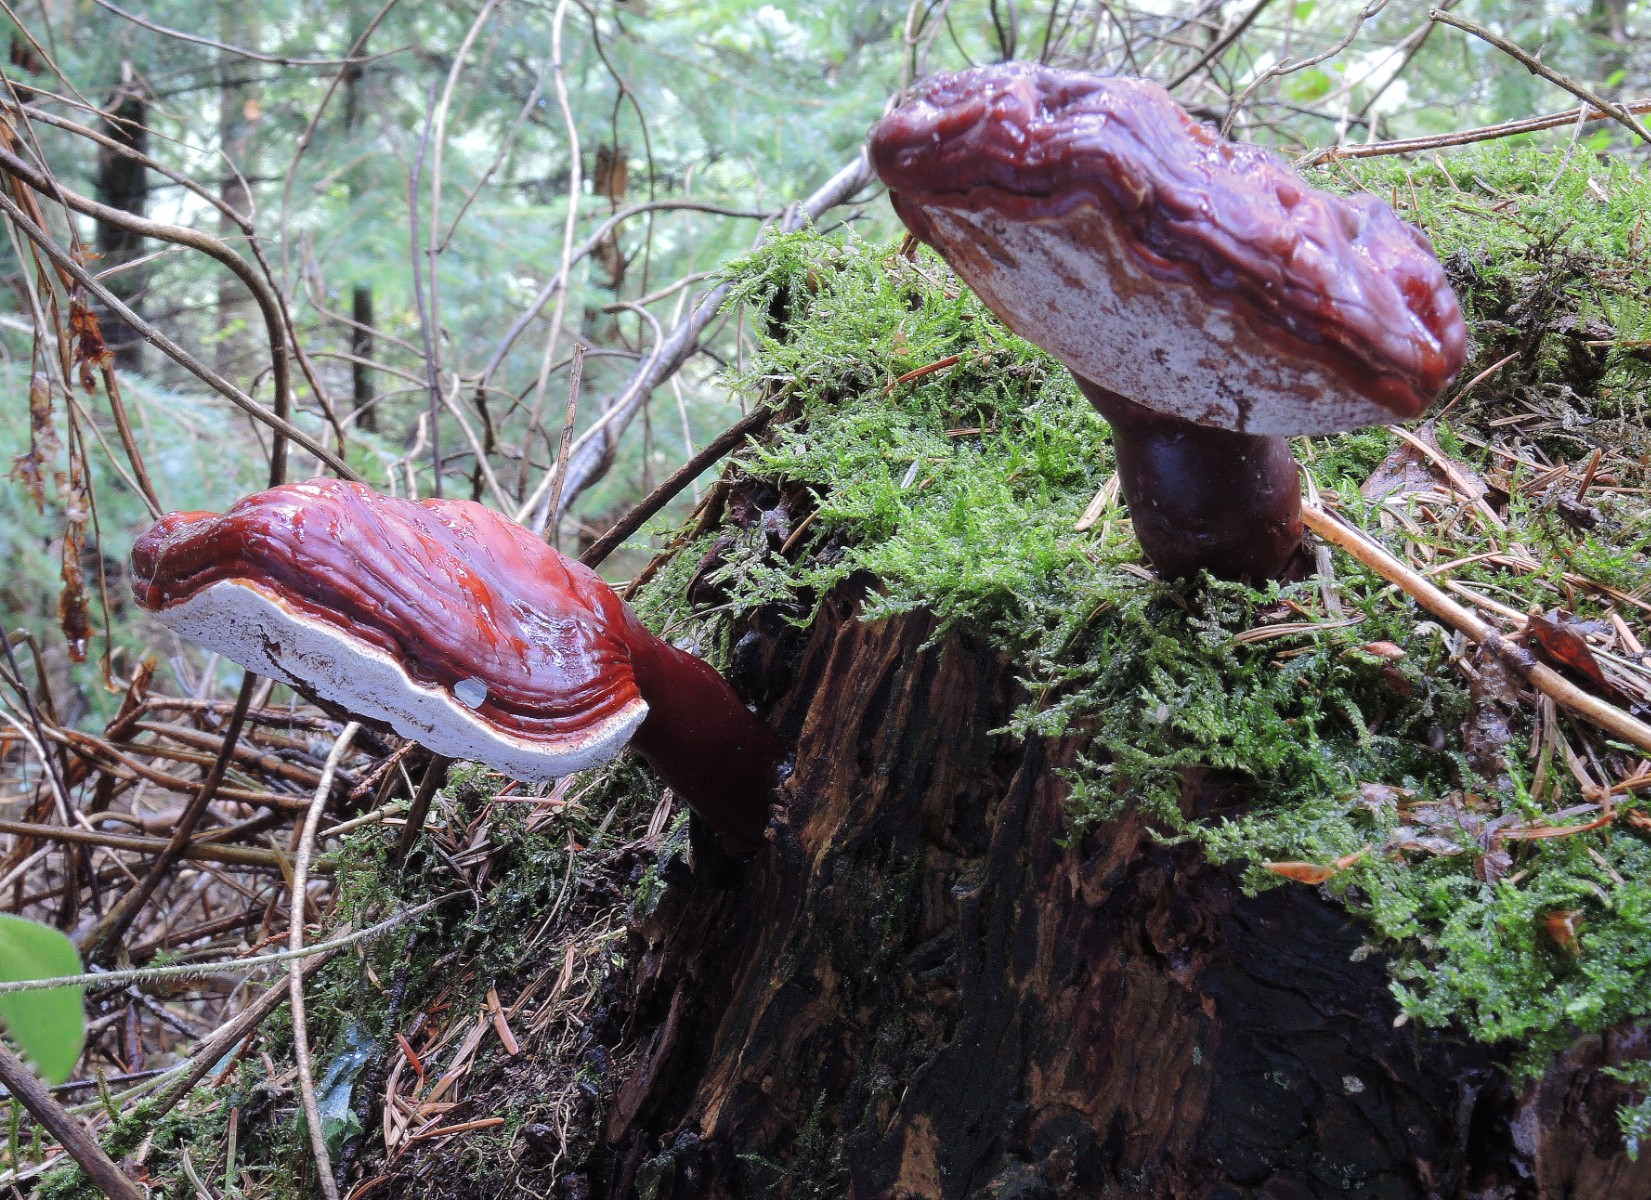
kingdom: Fungi
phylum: Basidiomycota
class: Agaricomycetes
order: Polyporales
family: Polyporaceae
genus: Ganoderma
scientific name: Ganoderma lucidum
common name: skinnende lakporesvamp
